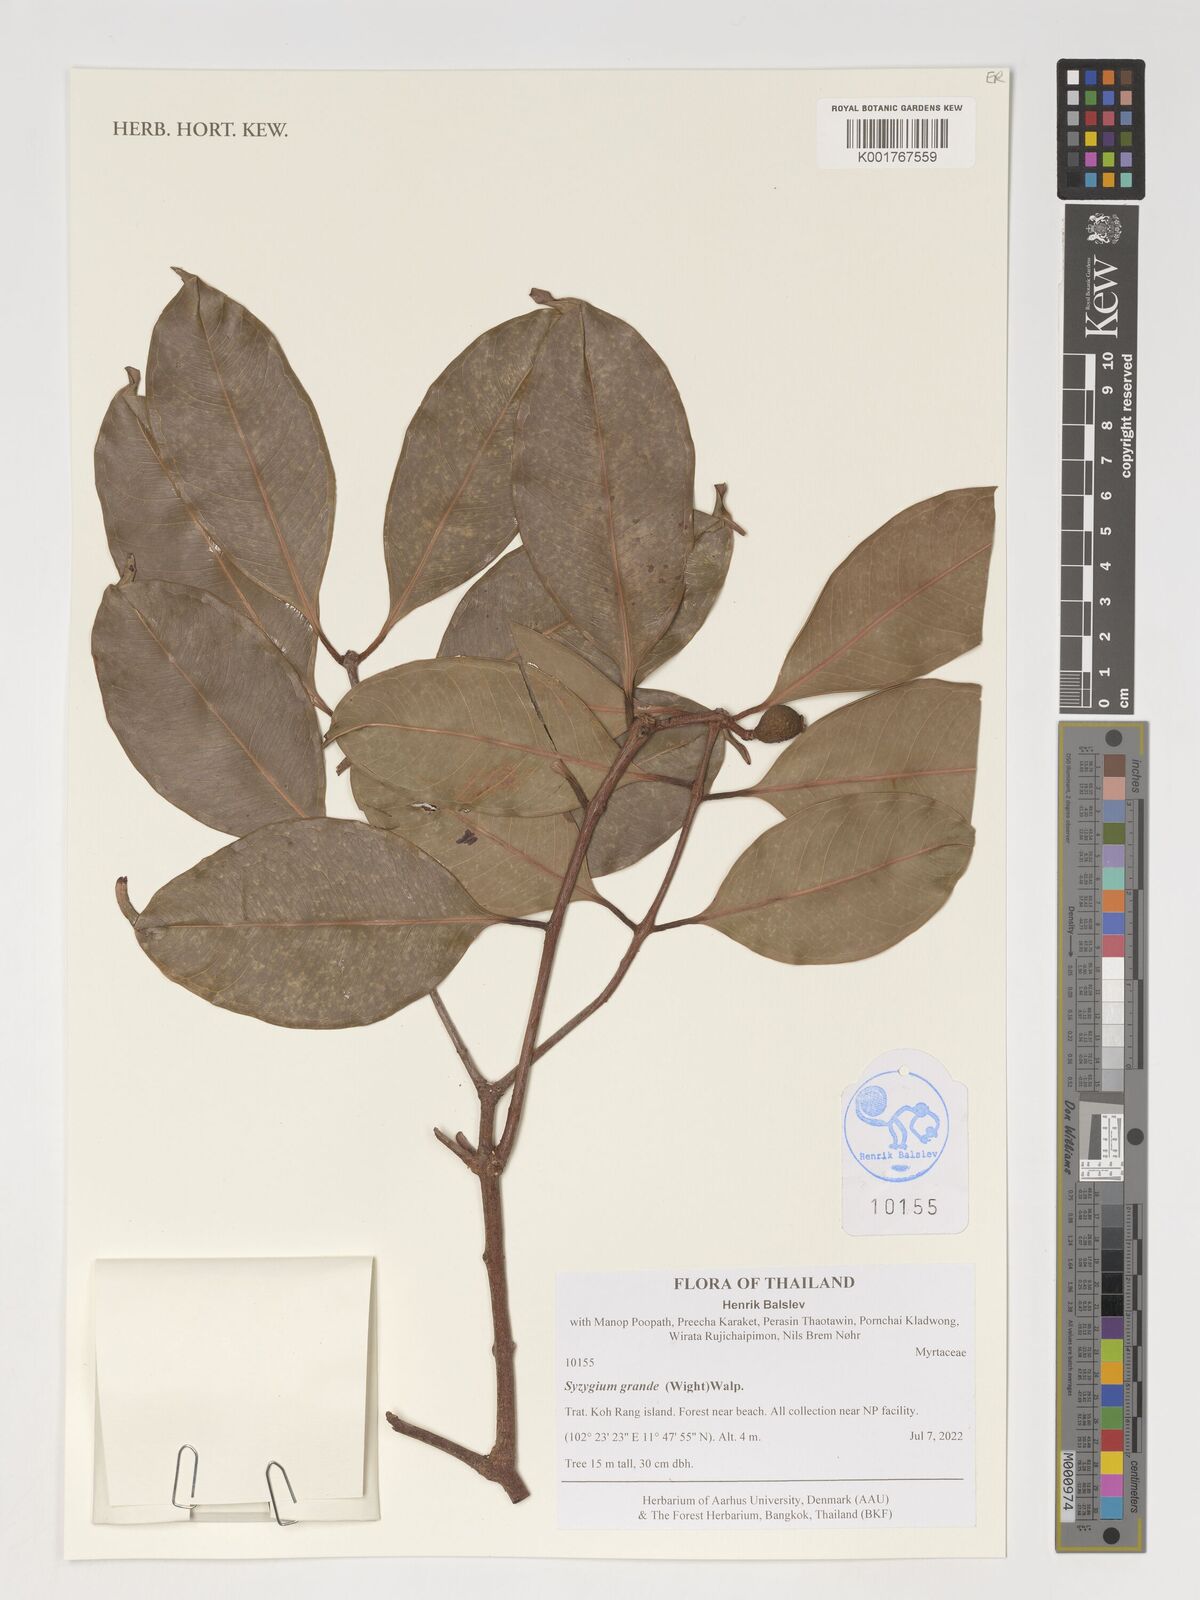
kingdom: Plantae
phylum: Tracheophyta
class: Magnoliopsida
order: Myrtales
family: Myrtaceae
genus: Syzygium
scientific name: Syzygium grande
